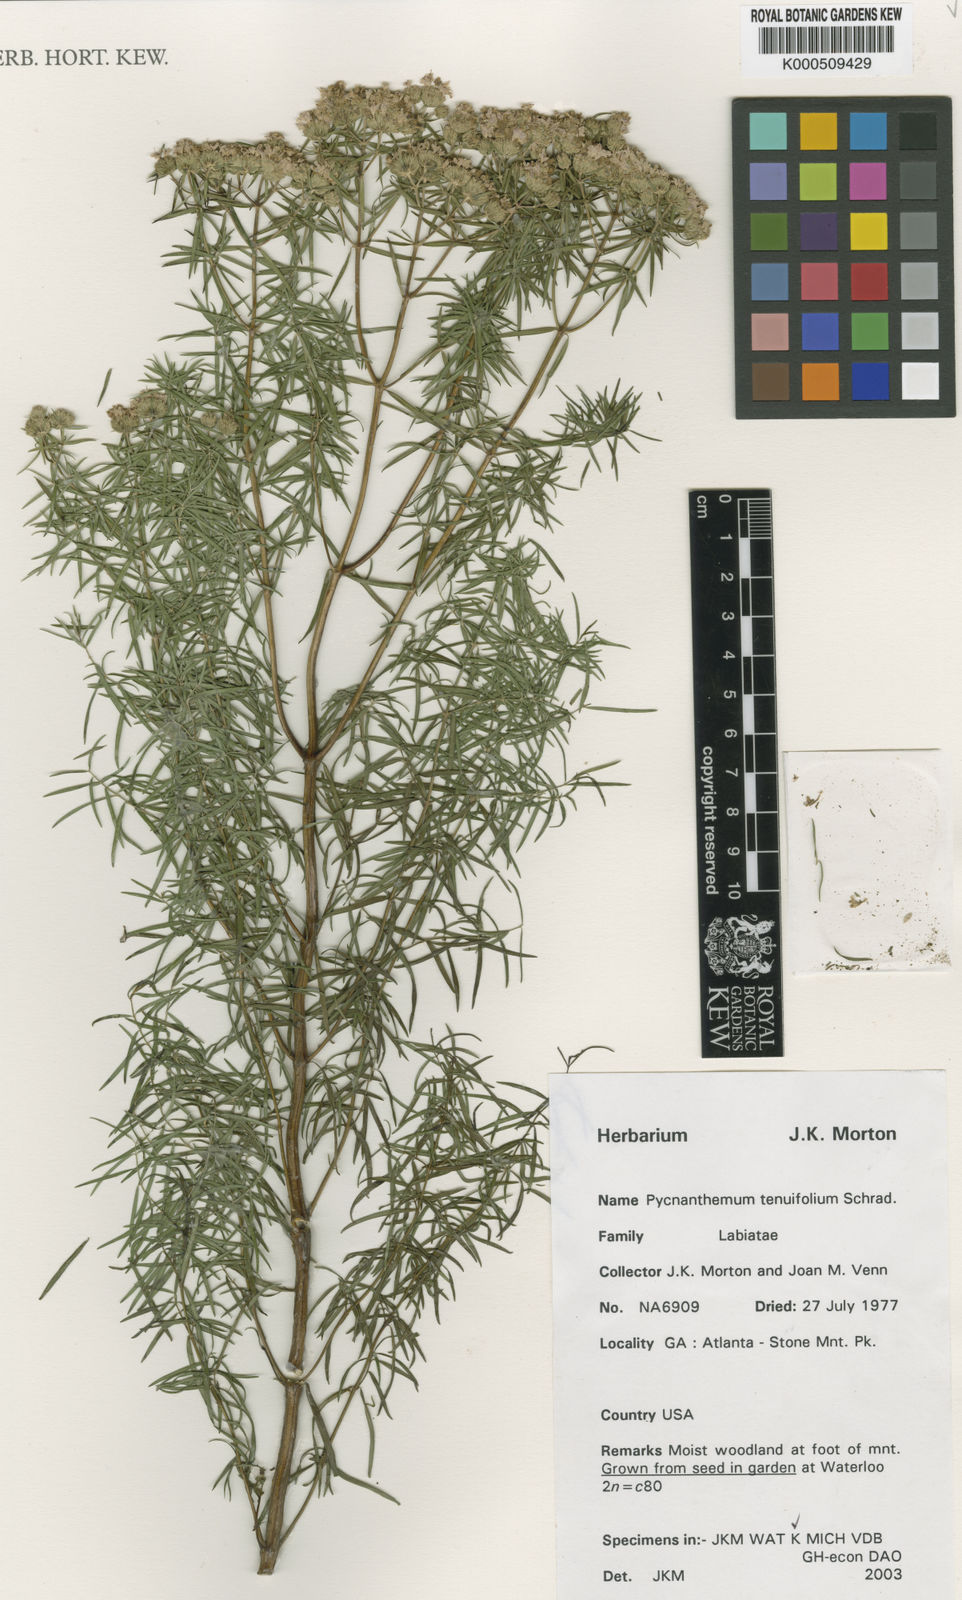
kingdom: Plantae
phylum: Tracheophyta
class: Magnoliopsida
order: Lamiales
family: Lamiaceae
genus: Pycnanthemum
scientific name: Pycnanthemum tenuifolium
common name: Narrow-leaf mountain-mint
